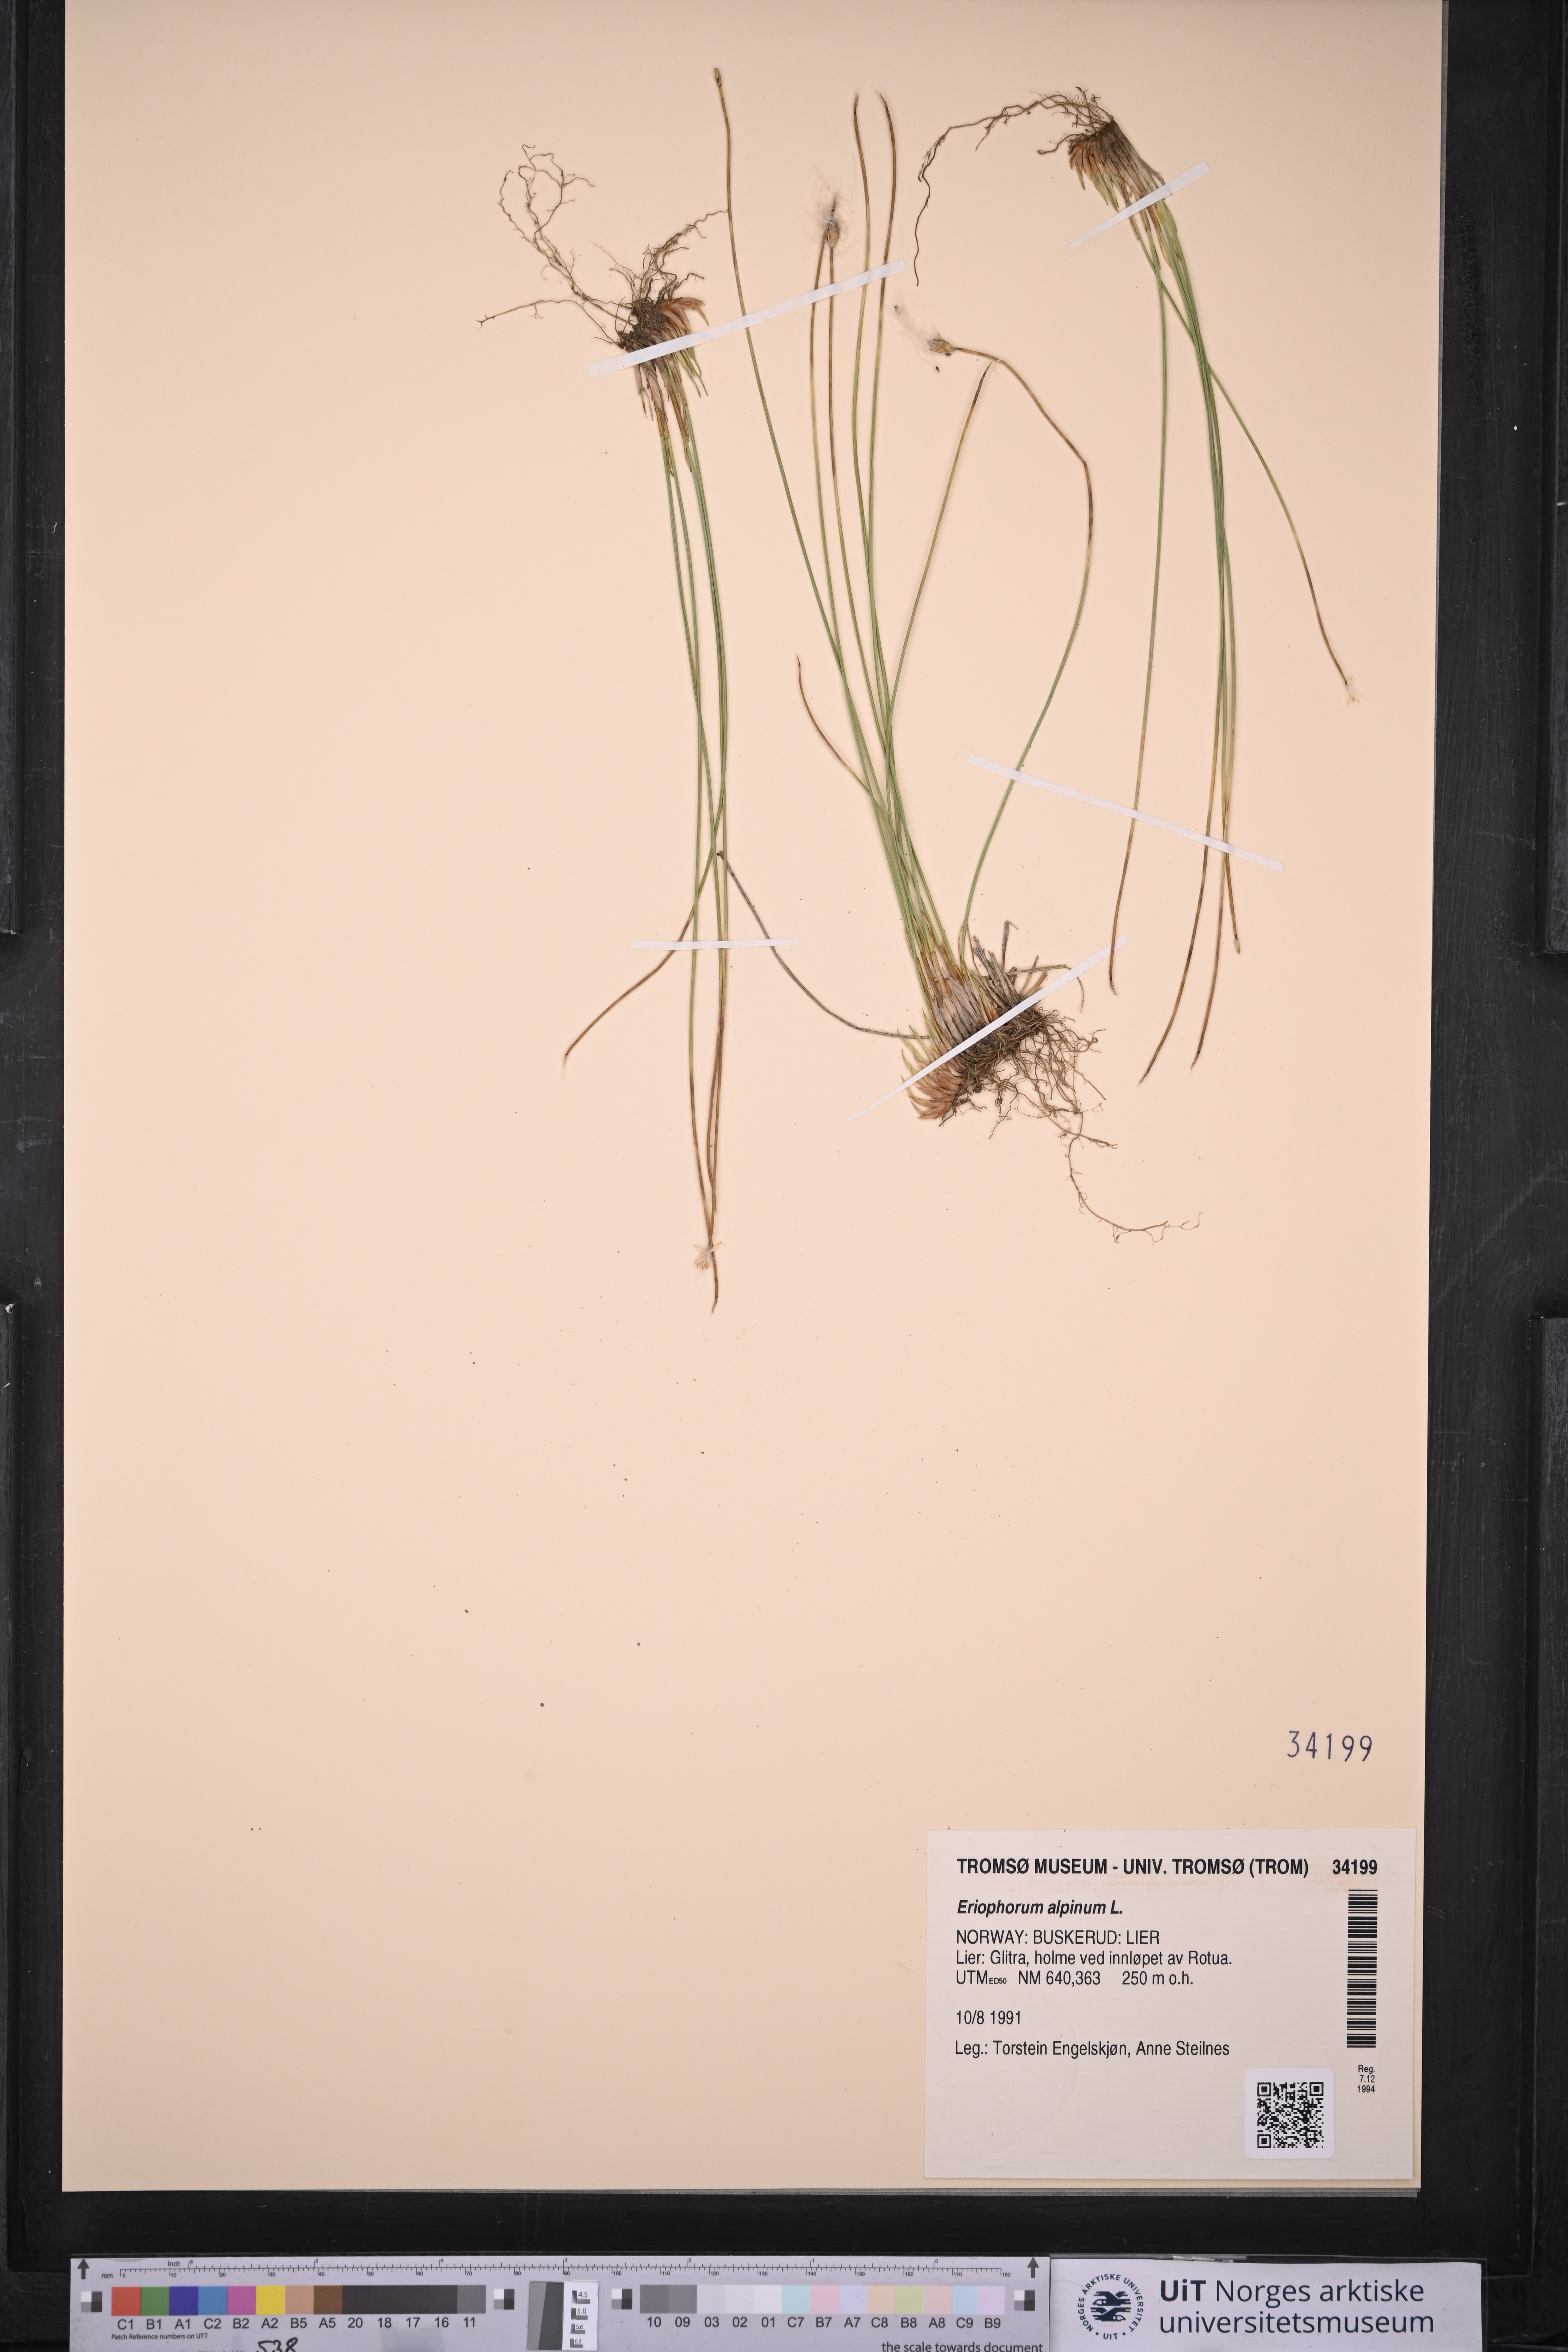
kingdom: Plantae
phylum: Tracheophyta
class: Liliopsida
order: Poales
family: Cyperaceae
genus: Trichophorum
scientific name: Trichophorum alpinum
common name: Alpine bulrush
